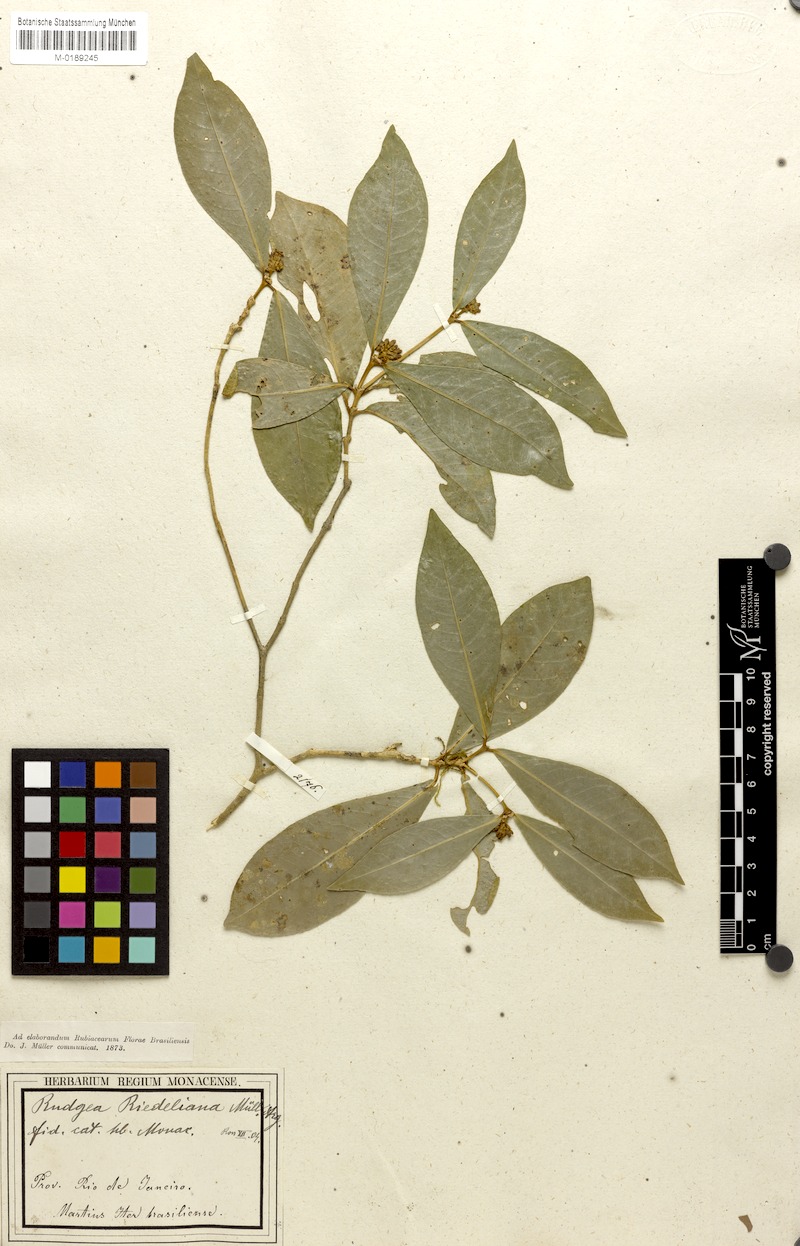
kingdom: Plantae
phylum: Tracheophyta
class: Magnoliopsida
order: Gentianales
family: Rubiaceae
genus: Rudgea
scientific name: Rudgea coronata
